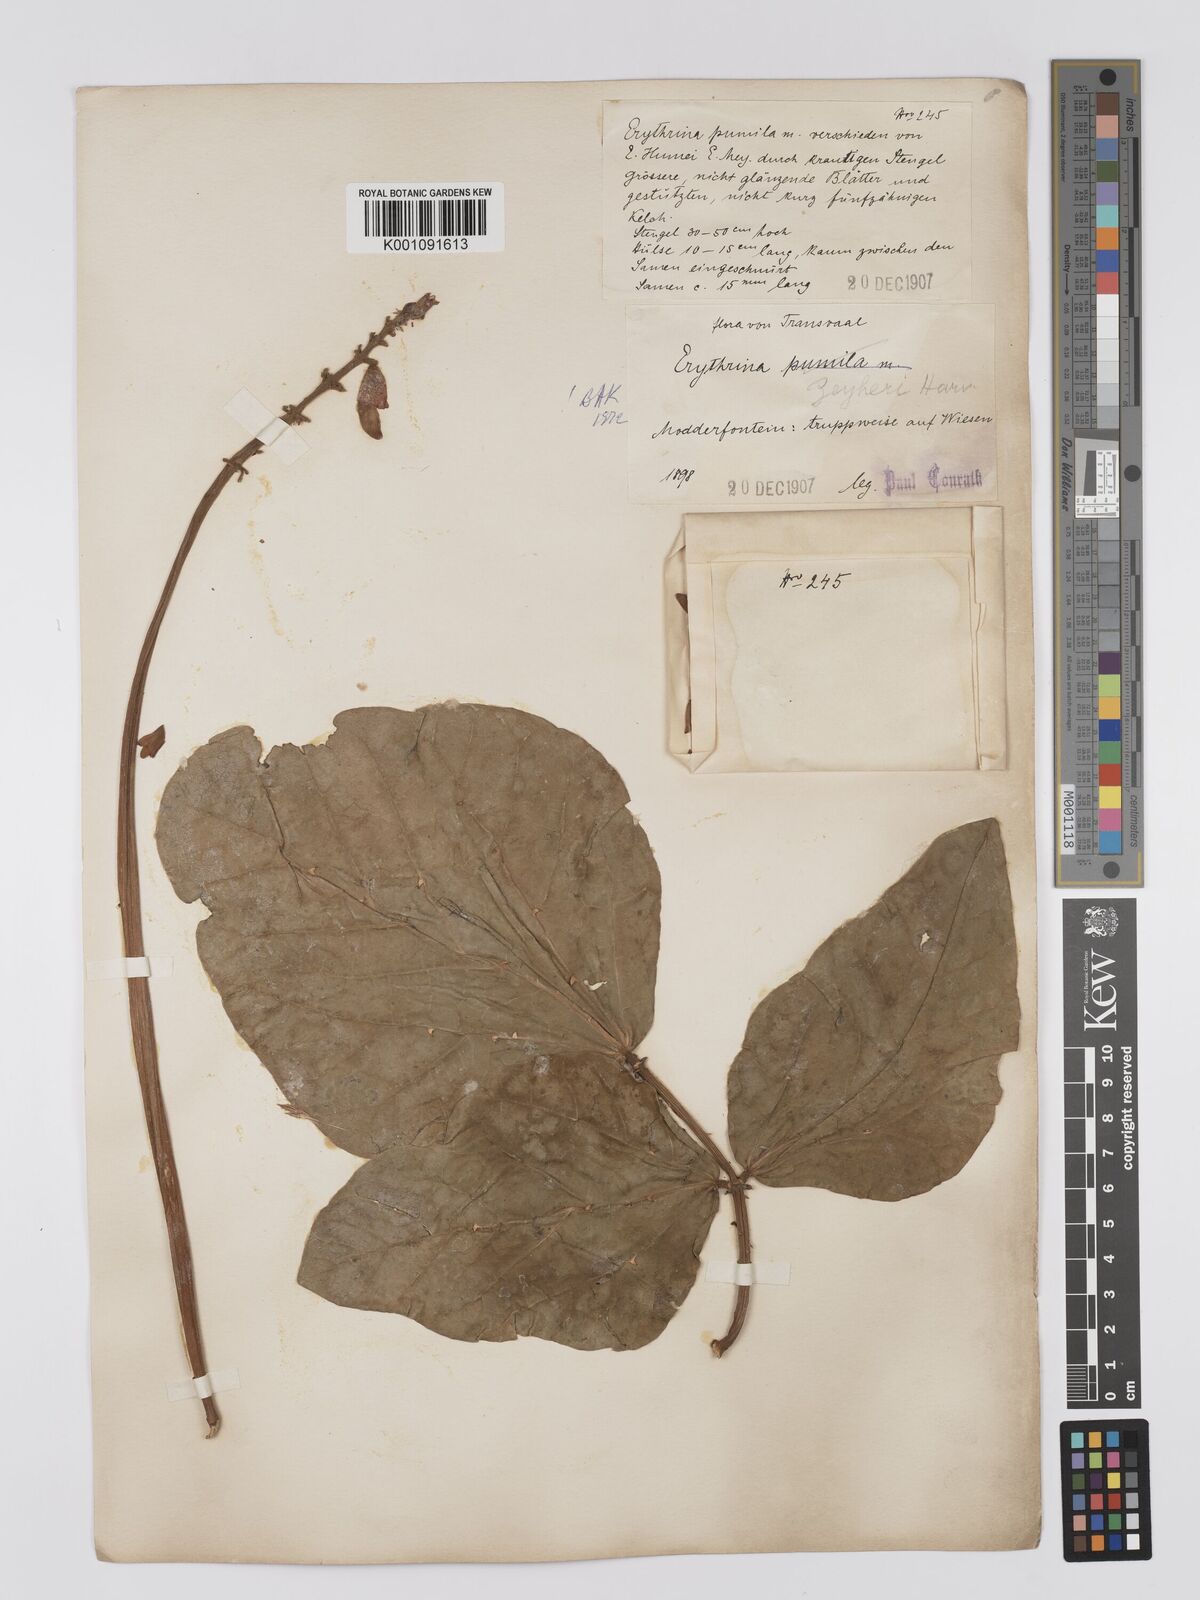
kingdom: Plantae
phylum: Tracheophyta
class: Magnoliopsida
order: Fabales
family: Fabaceae
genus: Erythrina
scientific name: Erythrina zeyheri
